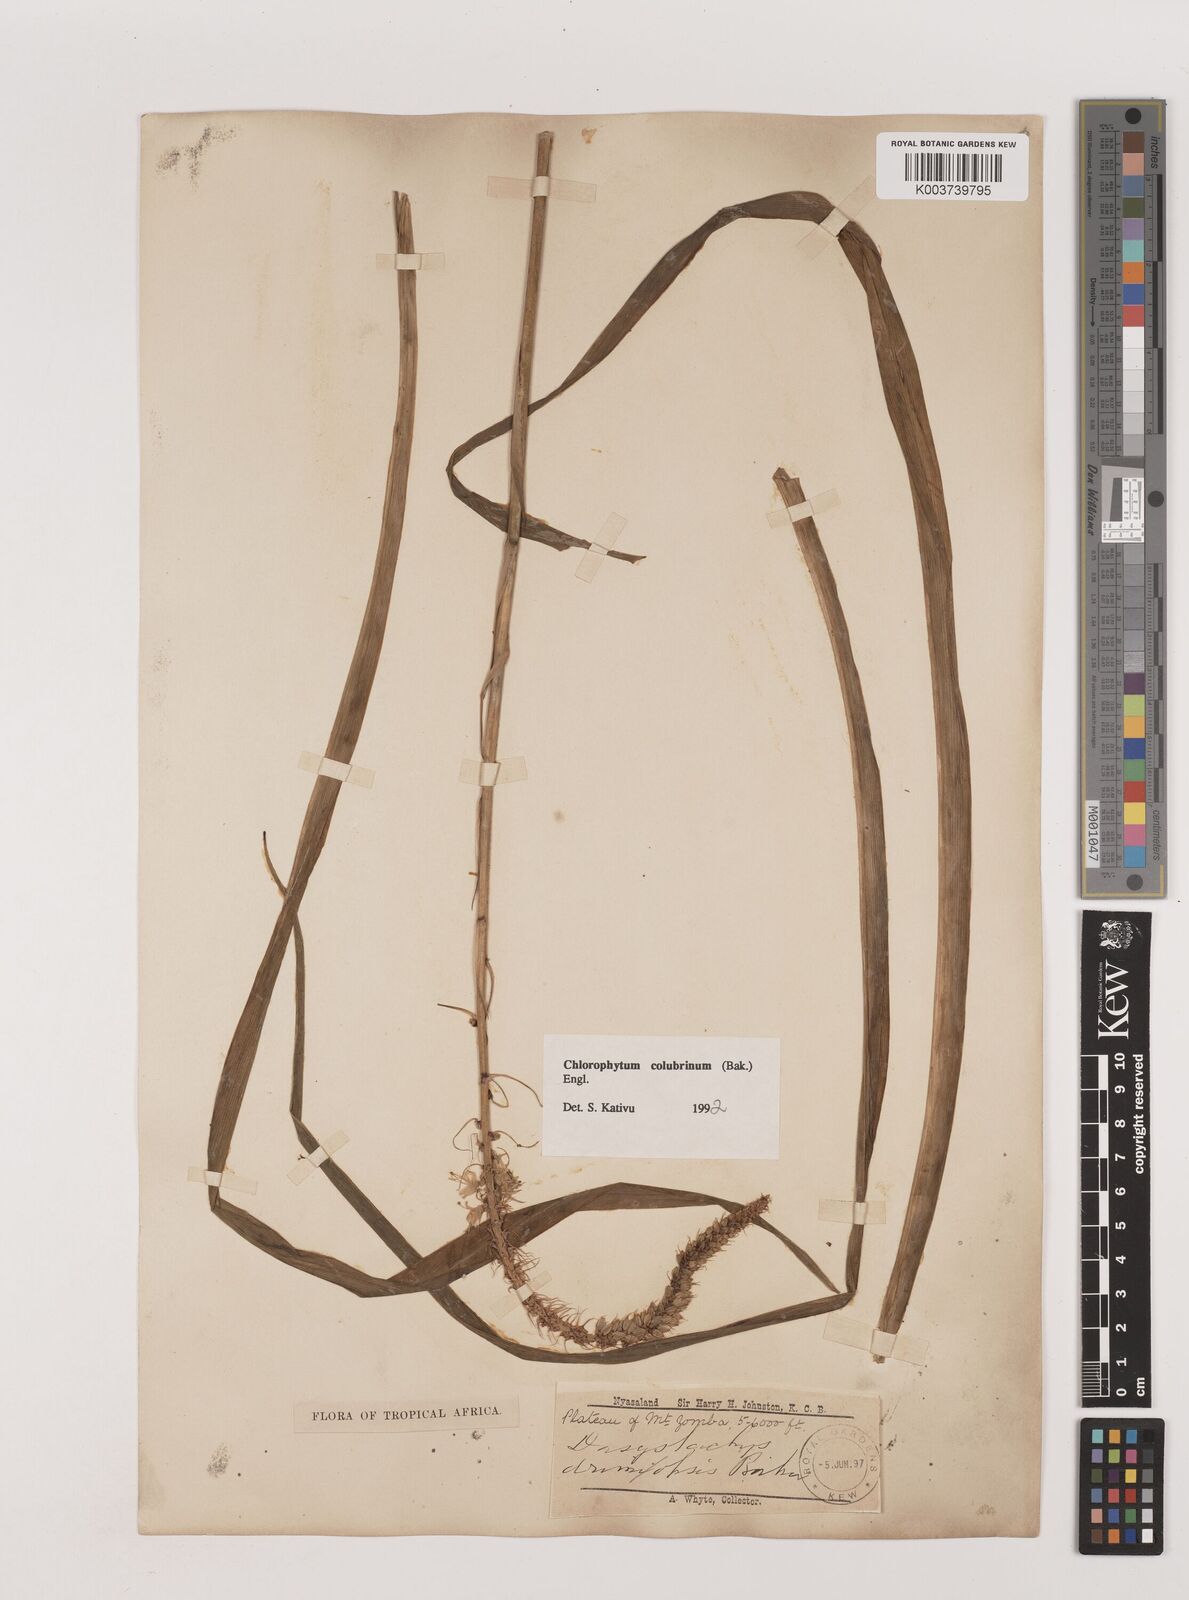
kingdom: Plantae
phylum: Tracheophyta
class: Liliopsida
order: Asparagales
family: Asparagaceae
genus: Chlorophytum
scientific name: Chlorophytum colubrinum
